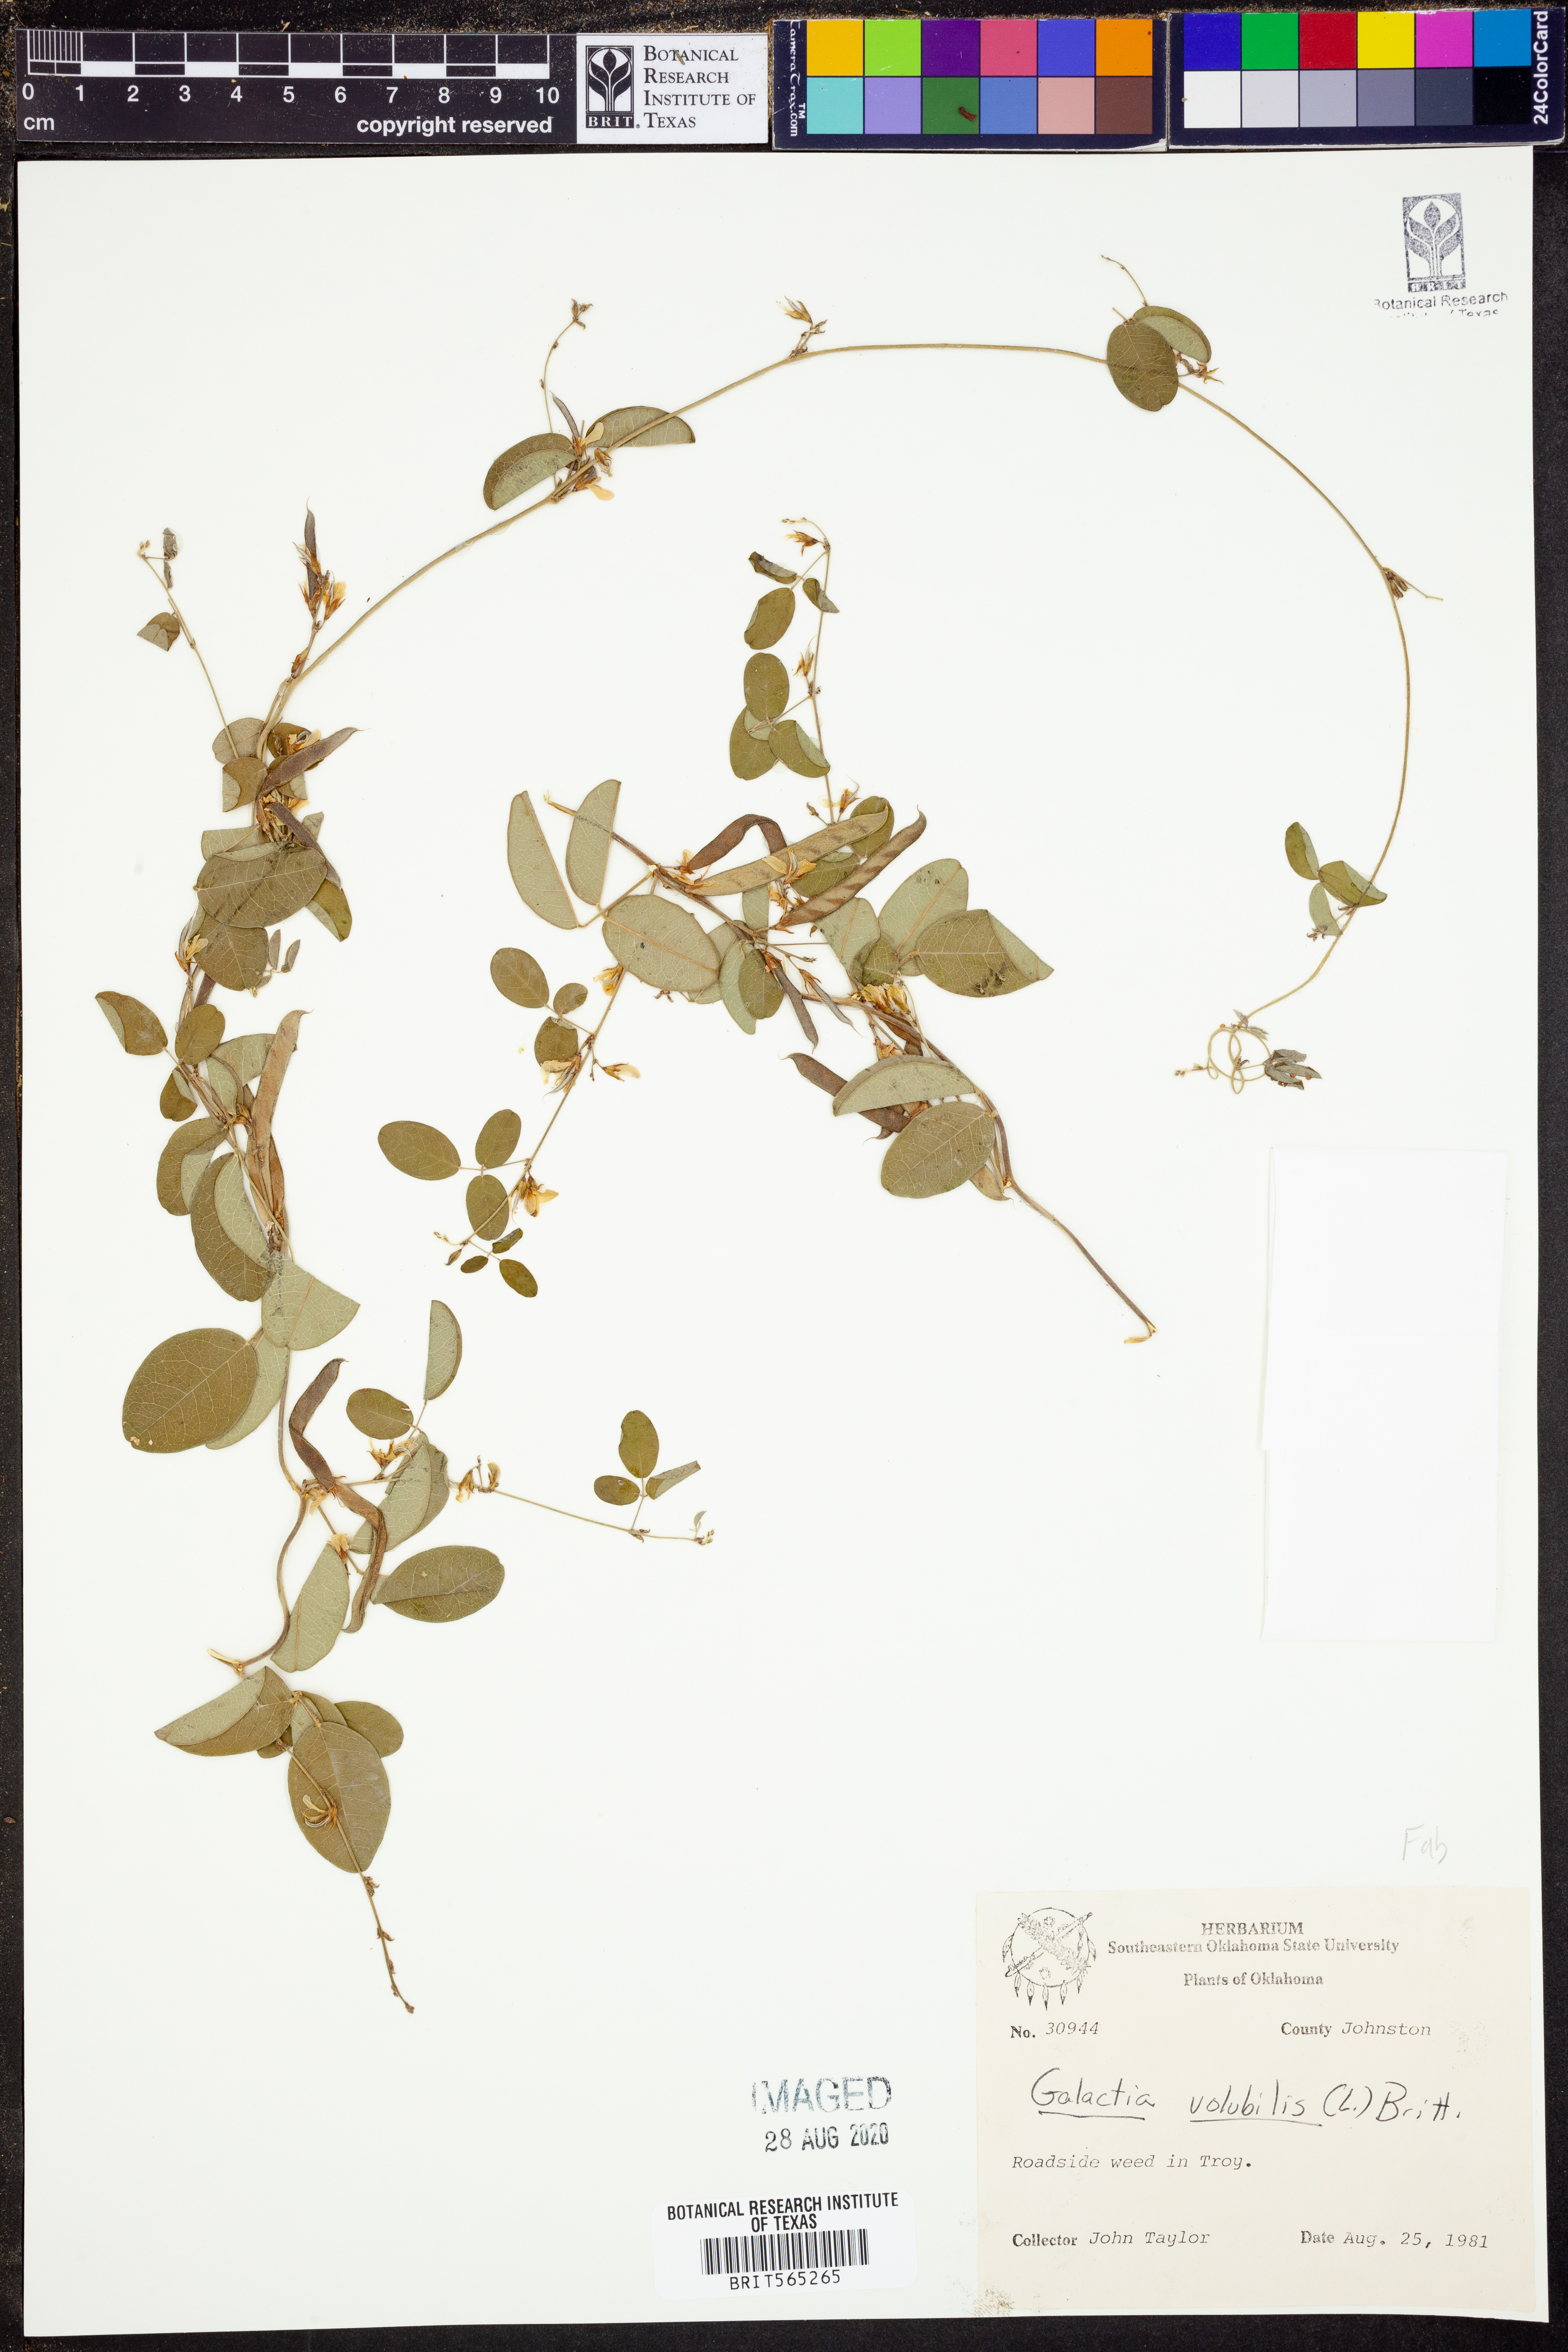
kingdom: Plantae
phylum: Tracheophyta
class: Magnoliopsida
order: Fabales
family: Fabaceae
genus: Galactia
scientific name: Galactia volubilis
